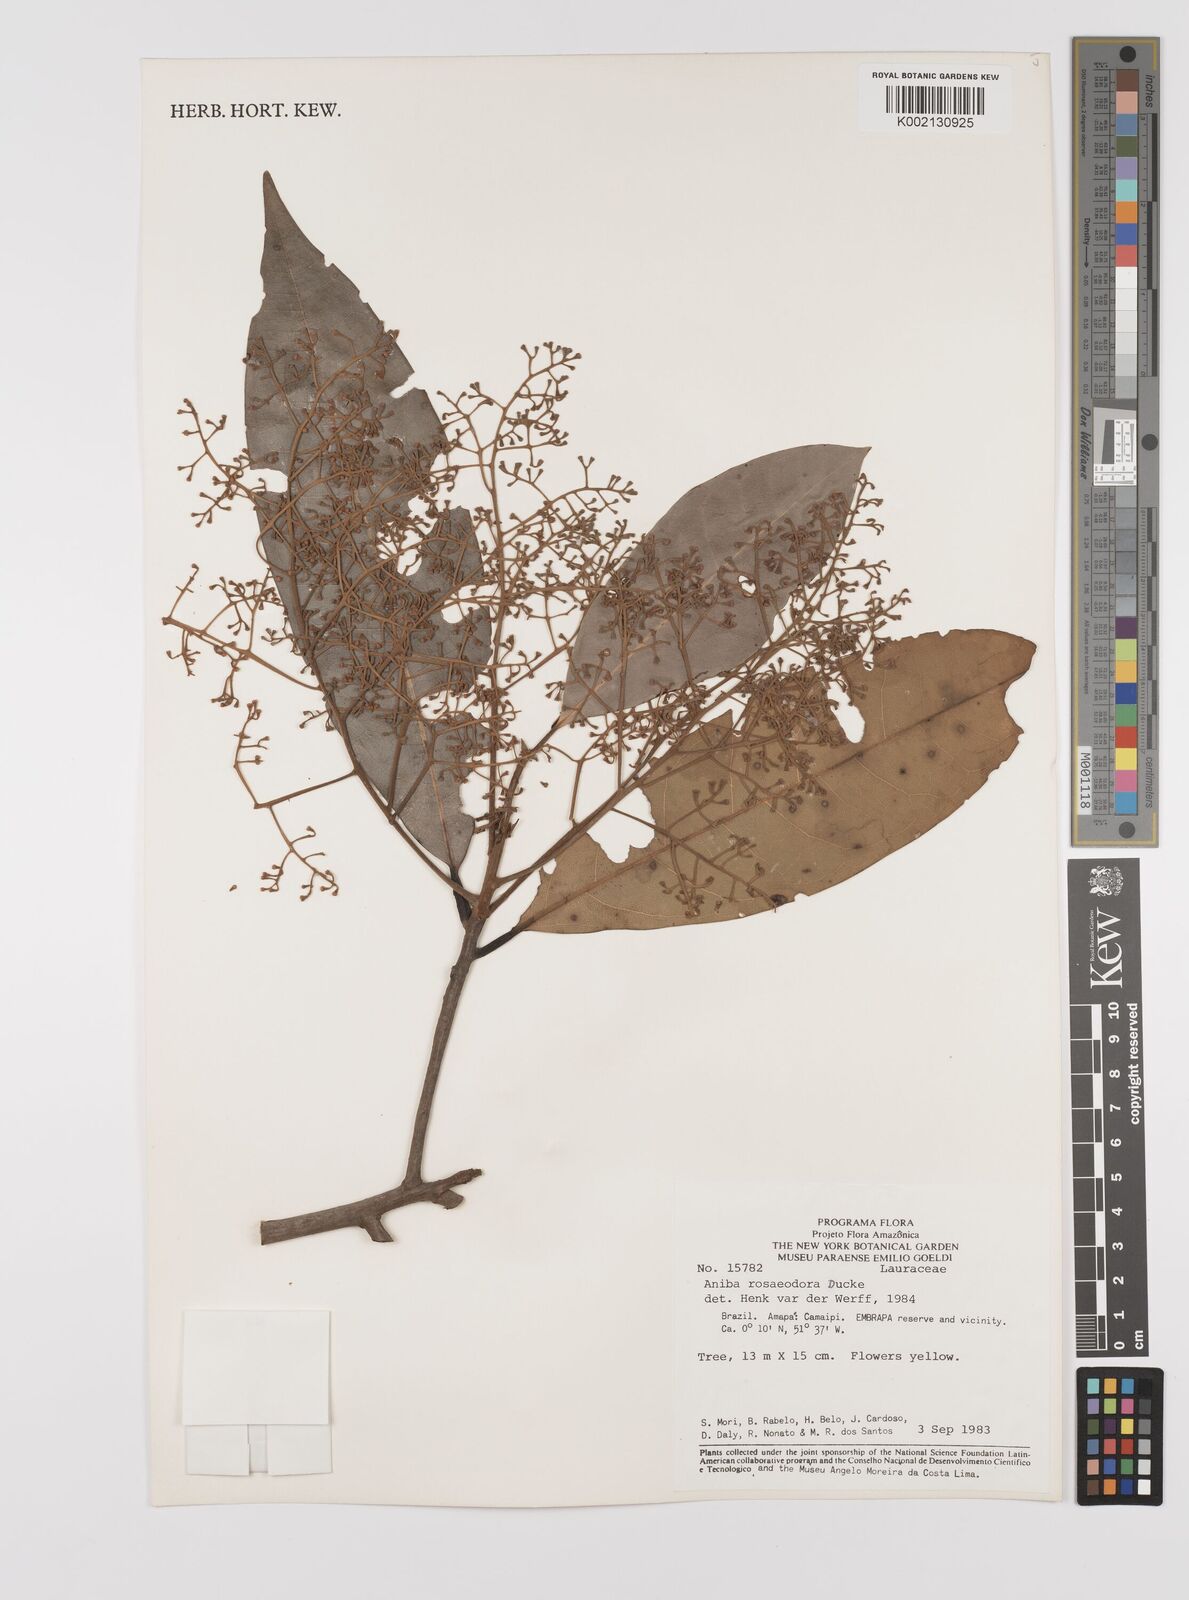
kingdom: Plantae
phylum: Tracheophyta
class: Magnoliopsida
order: Laurales
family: Lauraceae
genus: Aniba
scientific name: Aniba rosodora
